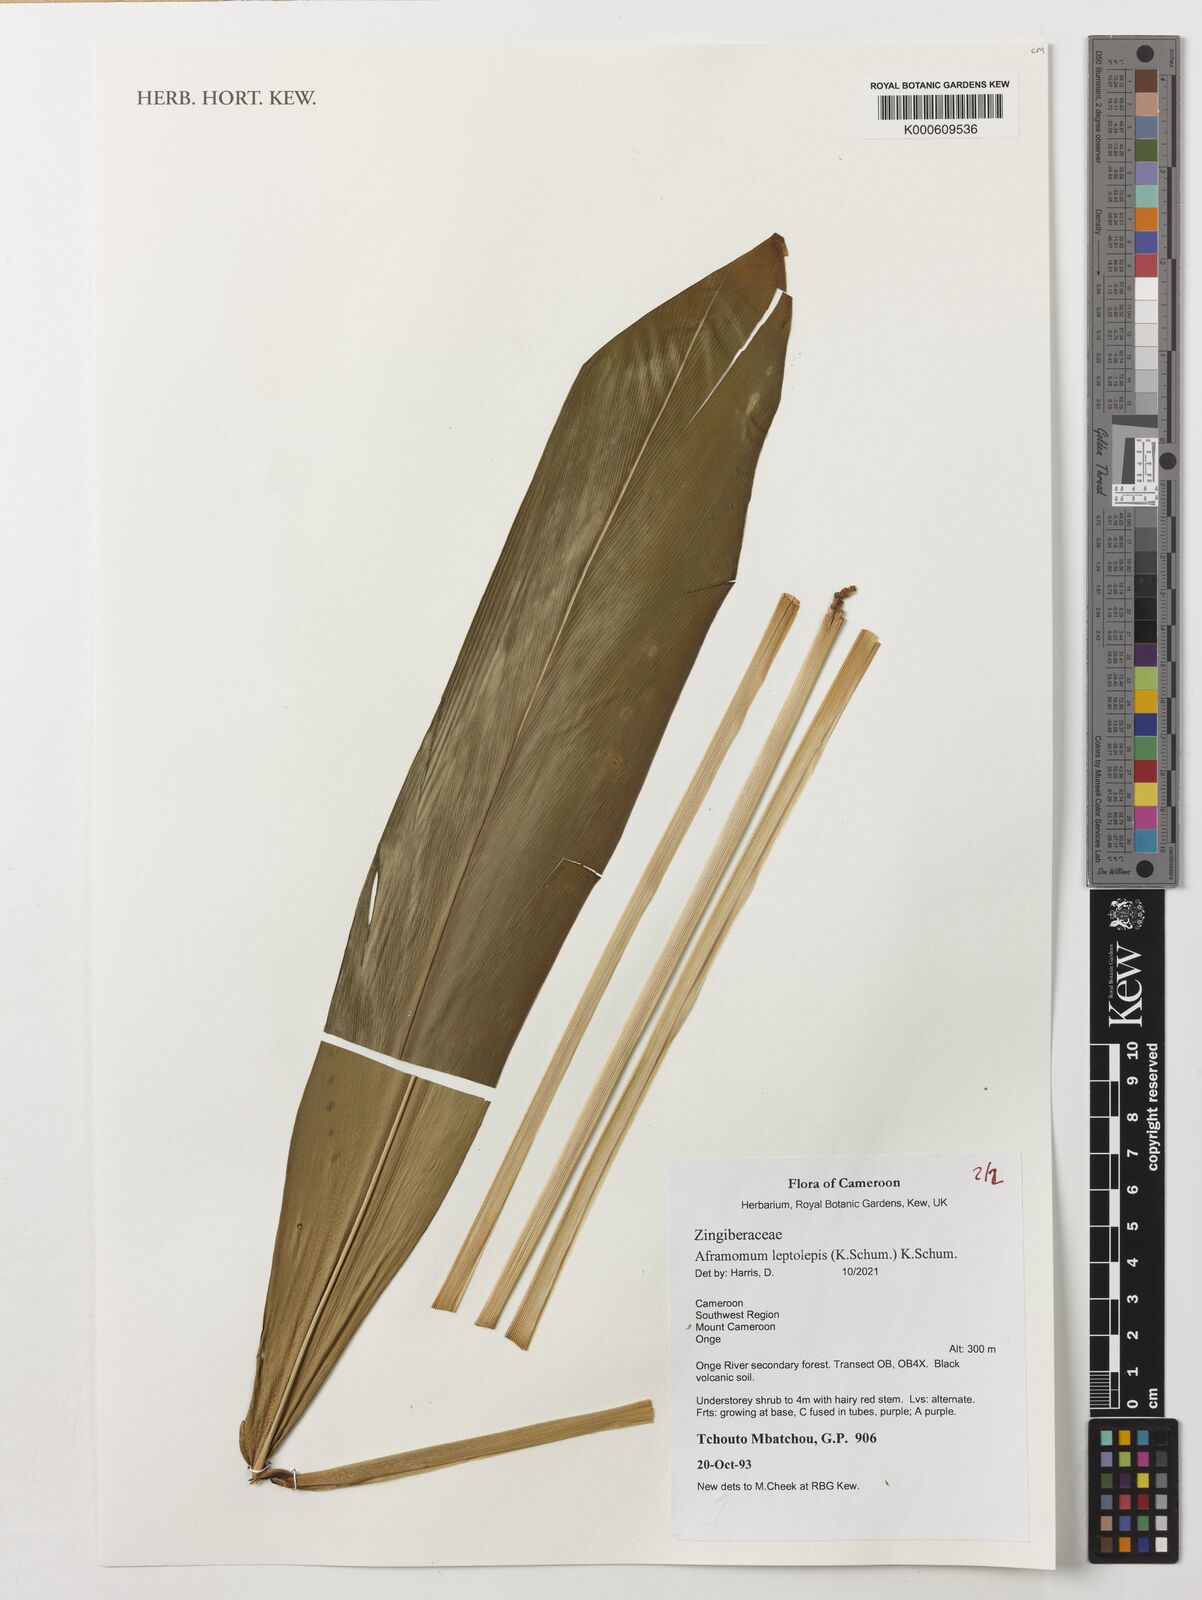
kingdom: Plantae
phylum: Tracheophyta
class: Liliopsida
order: Zingiberales
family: Zingiberaceae
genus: Aframomum
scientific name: Aframomum leptolepis
